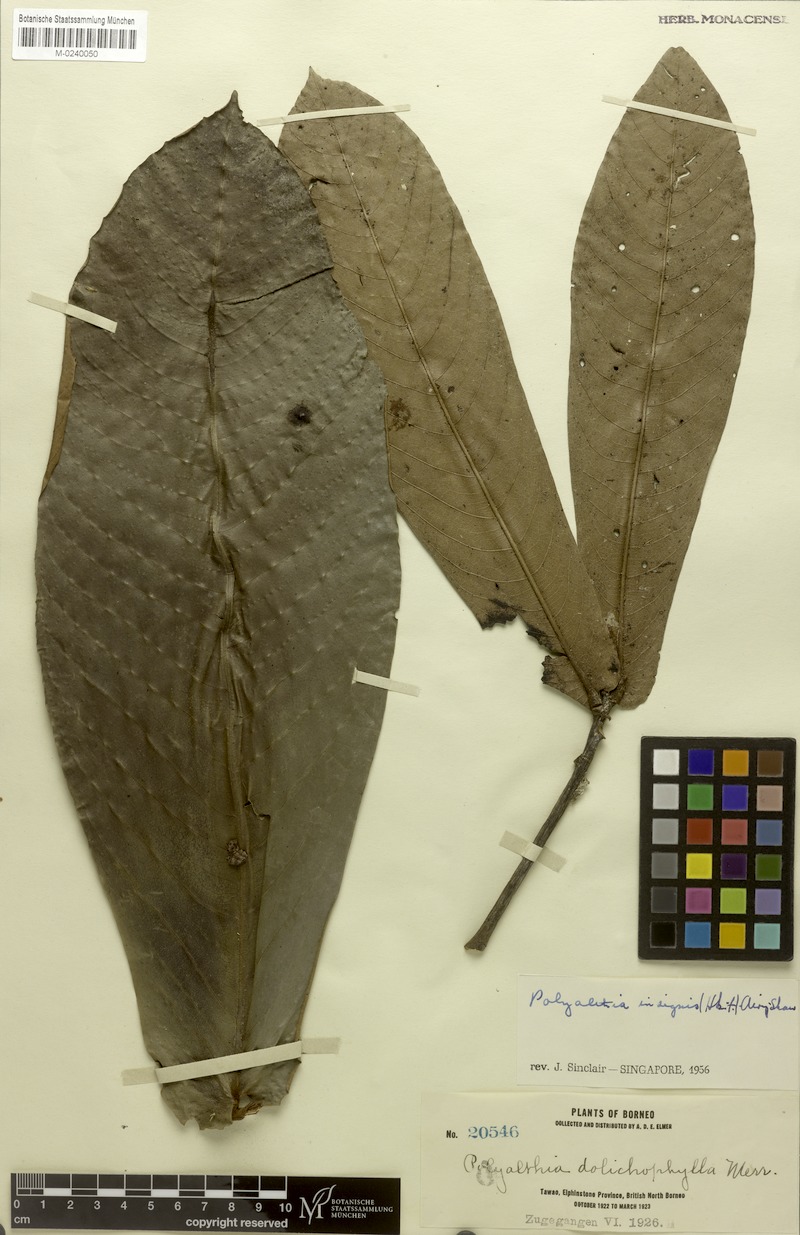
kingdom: Plantae
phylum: Tracheophyta
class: Magnoliopsida
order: Magnoliales
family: Annonaceae
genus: Polyalthia
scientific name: Polyalthia insignis
